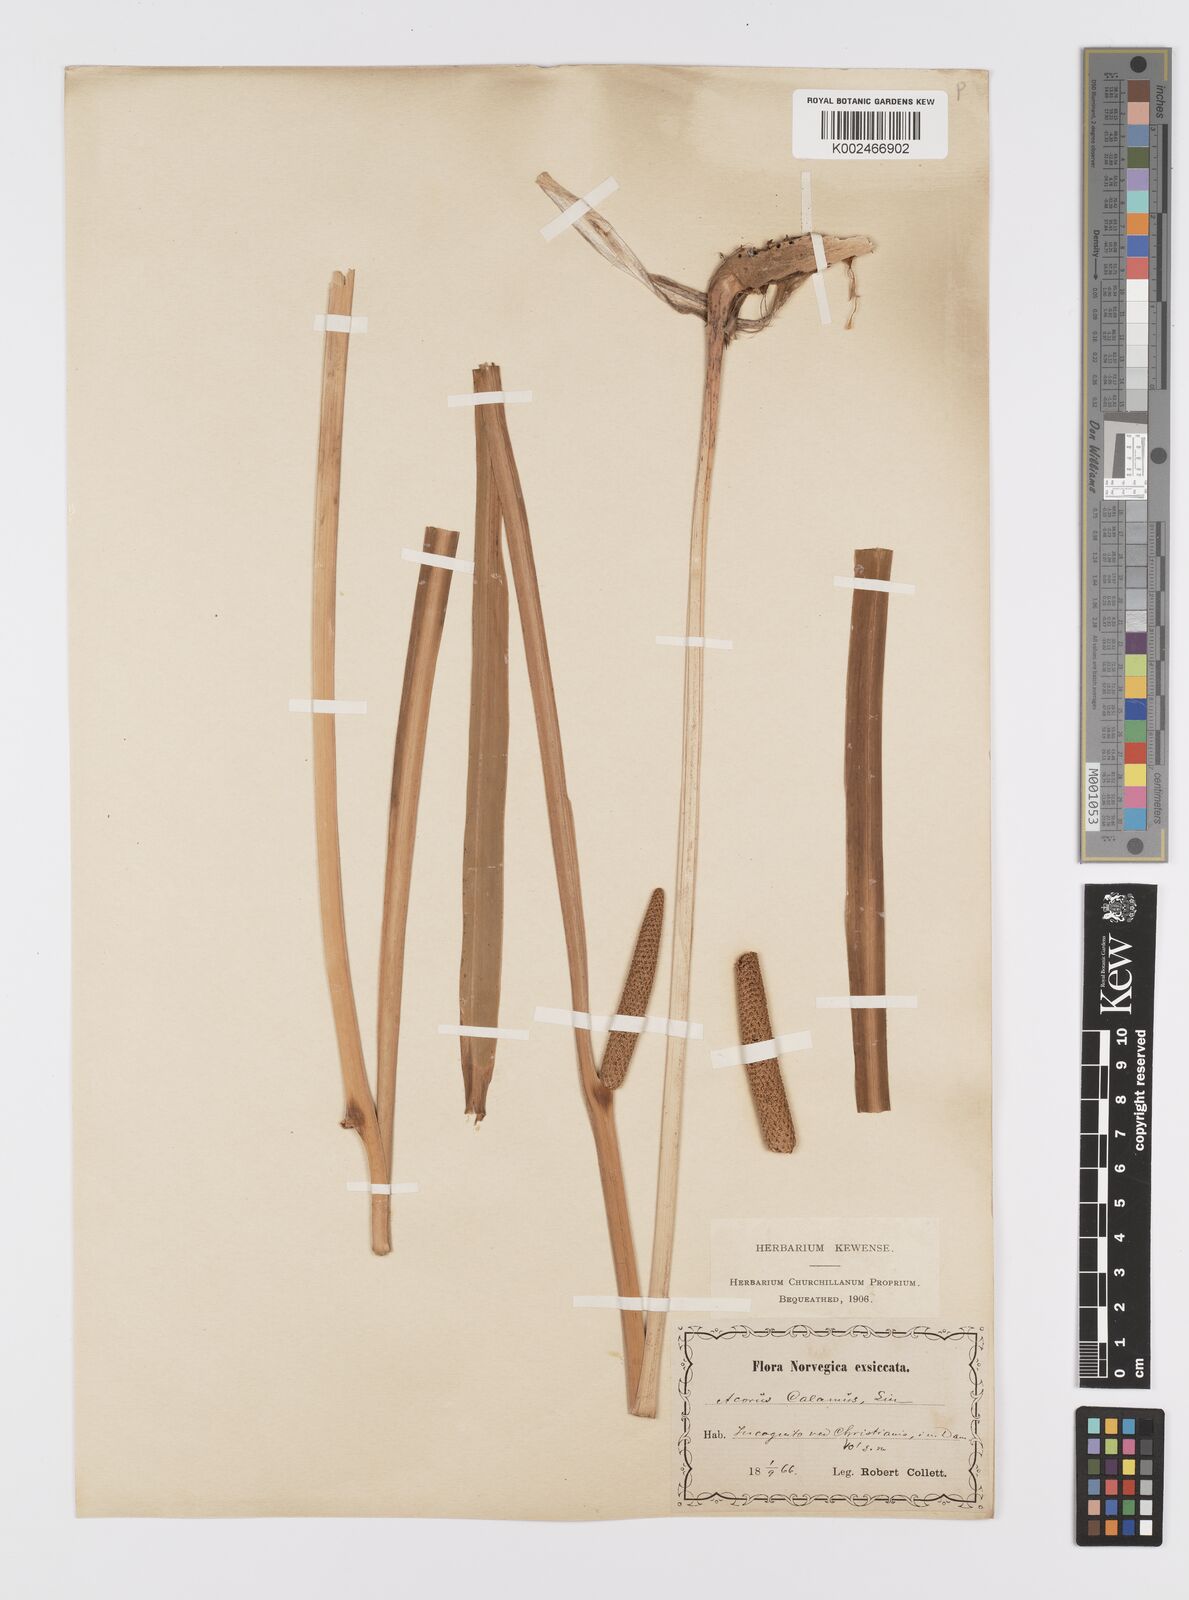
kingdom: Plantae
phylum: Tracheophyta
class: Liliopsida
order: Acorales
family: Acoraceae
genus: Acorus
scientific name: Acorus calamus
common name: Sweet-flag
